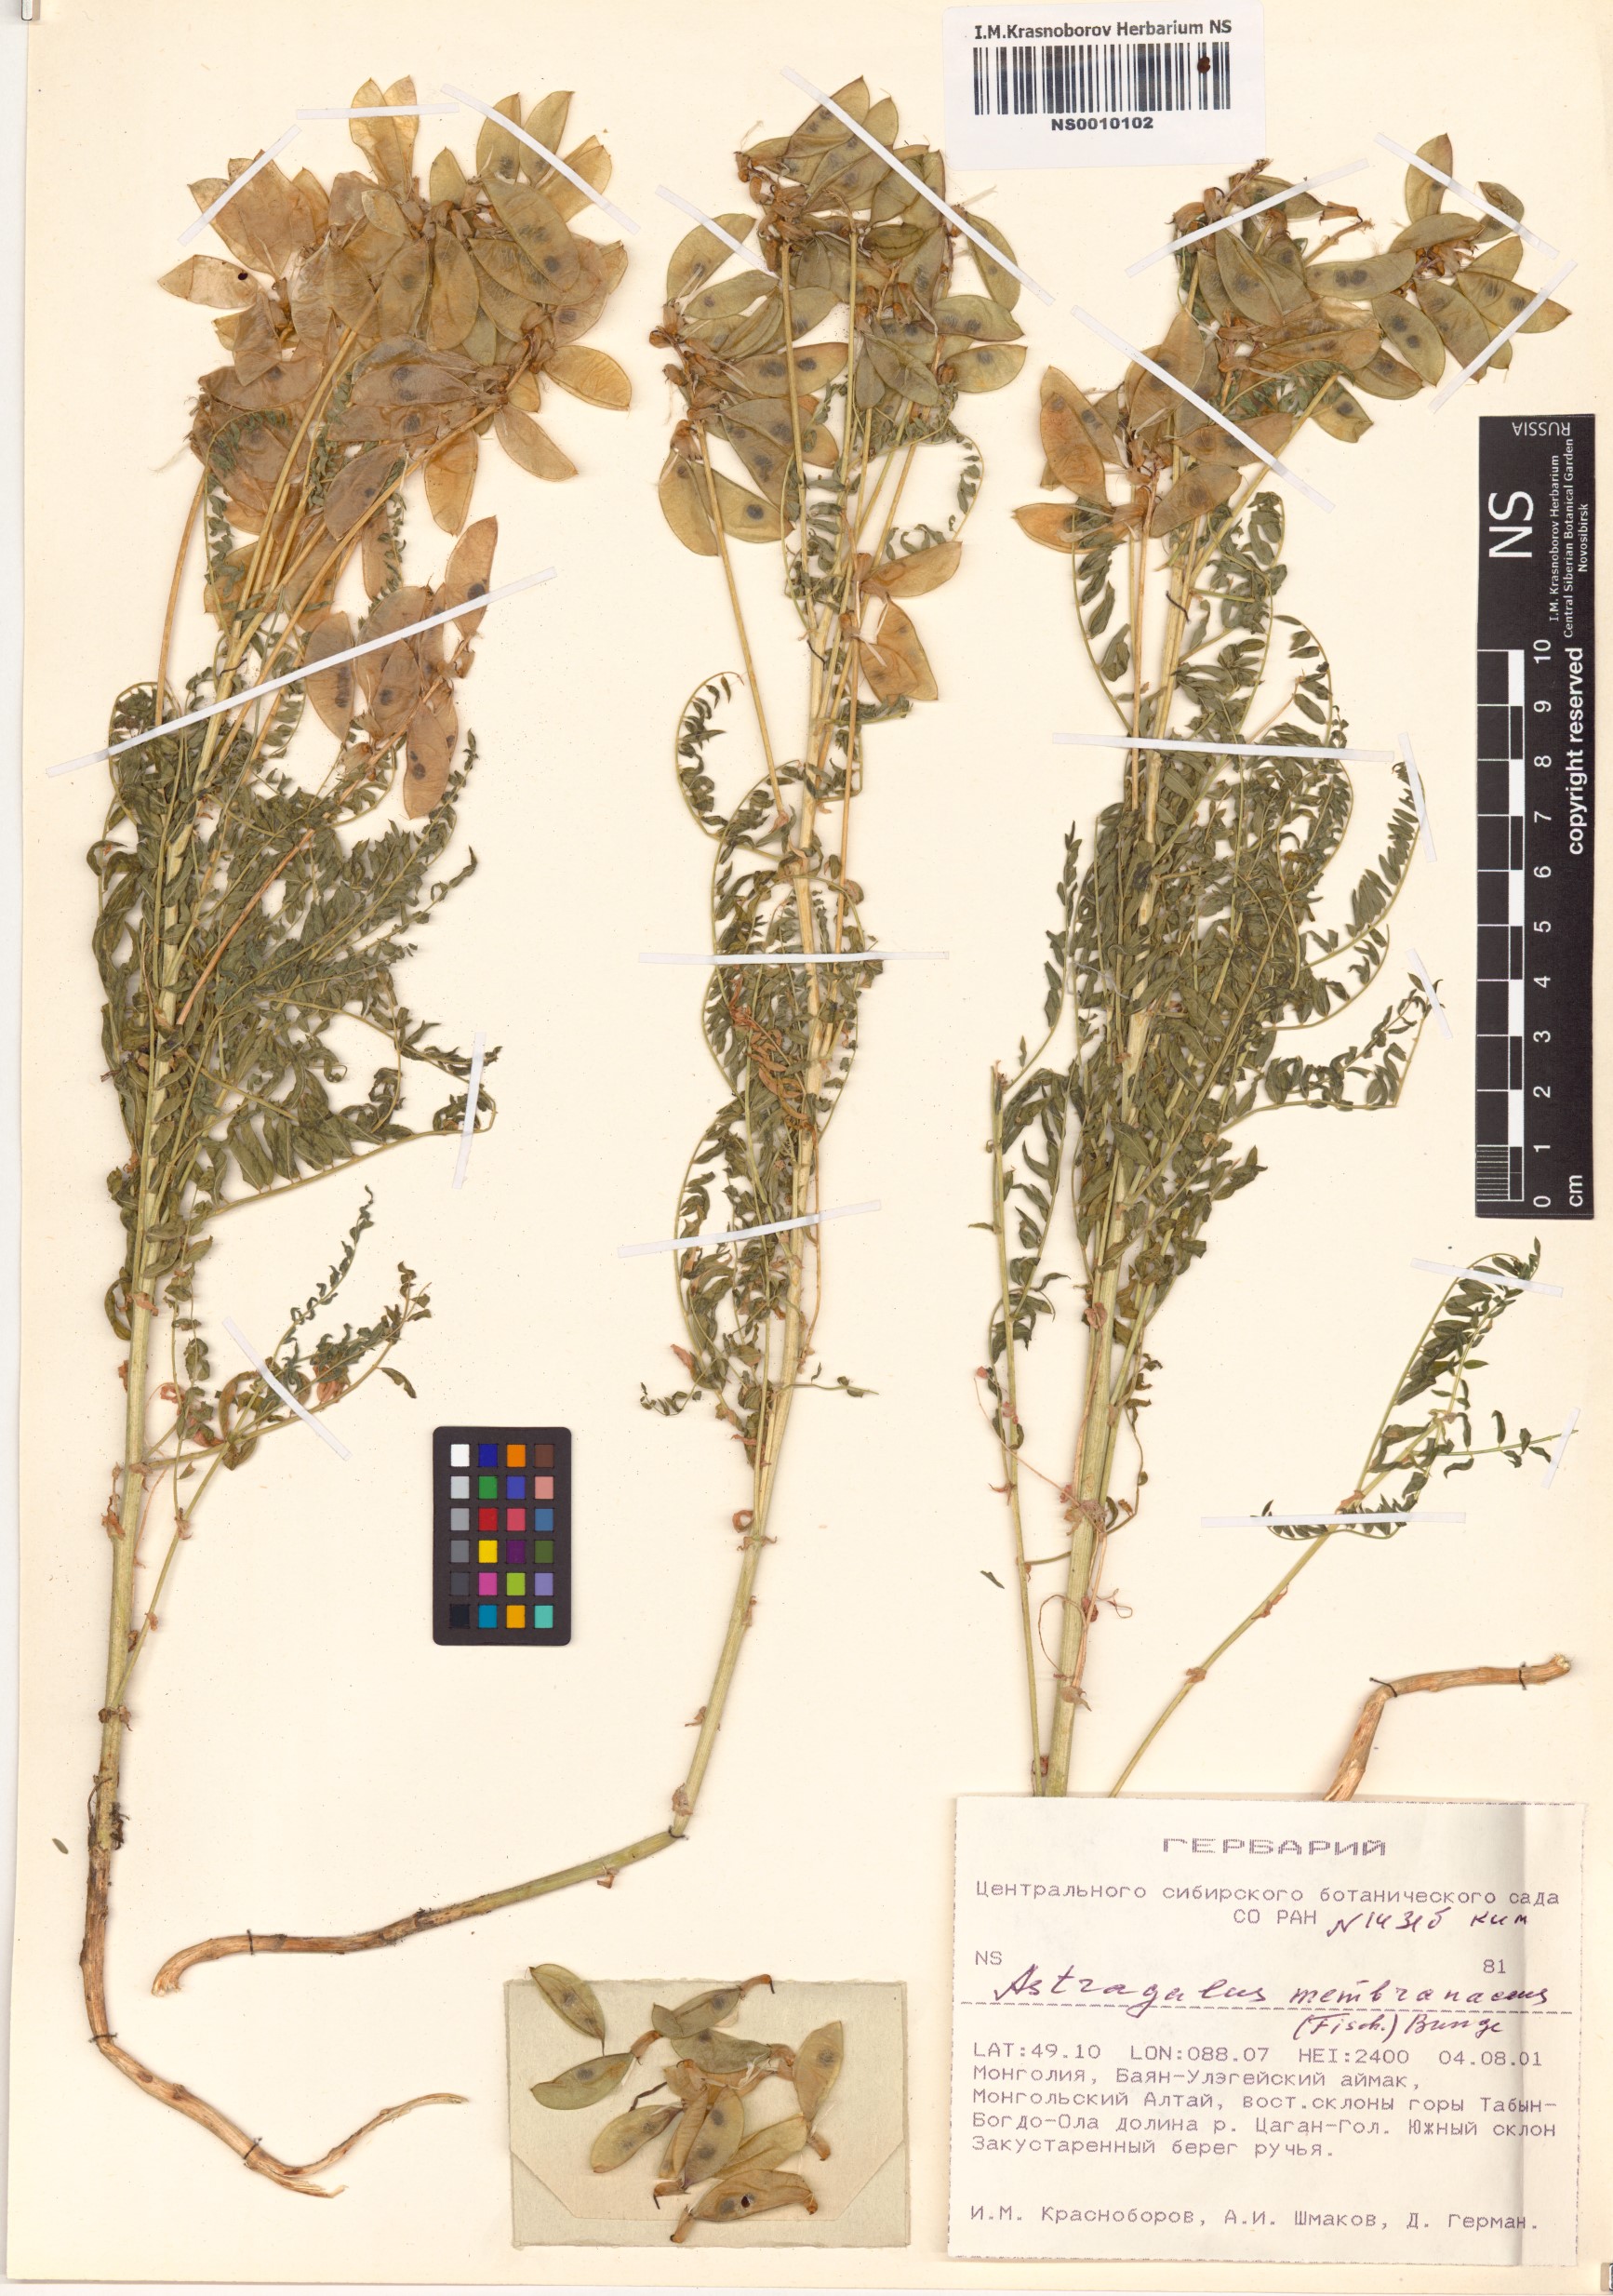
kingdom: Plantae
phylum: Tracheophyta
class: Magnoliopsida
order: Fabales
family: Fabaceae
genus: Astragalus
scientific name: Astragalus mongholicus
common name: Membranous milk-vetch
